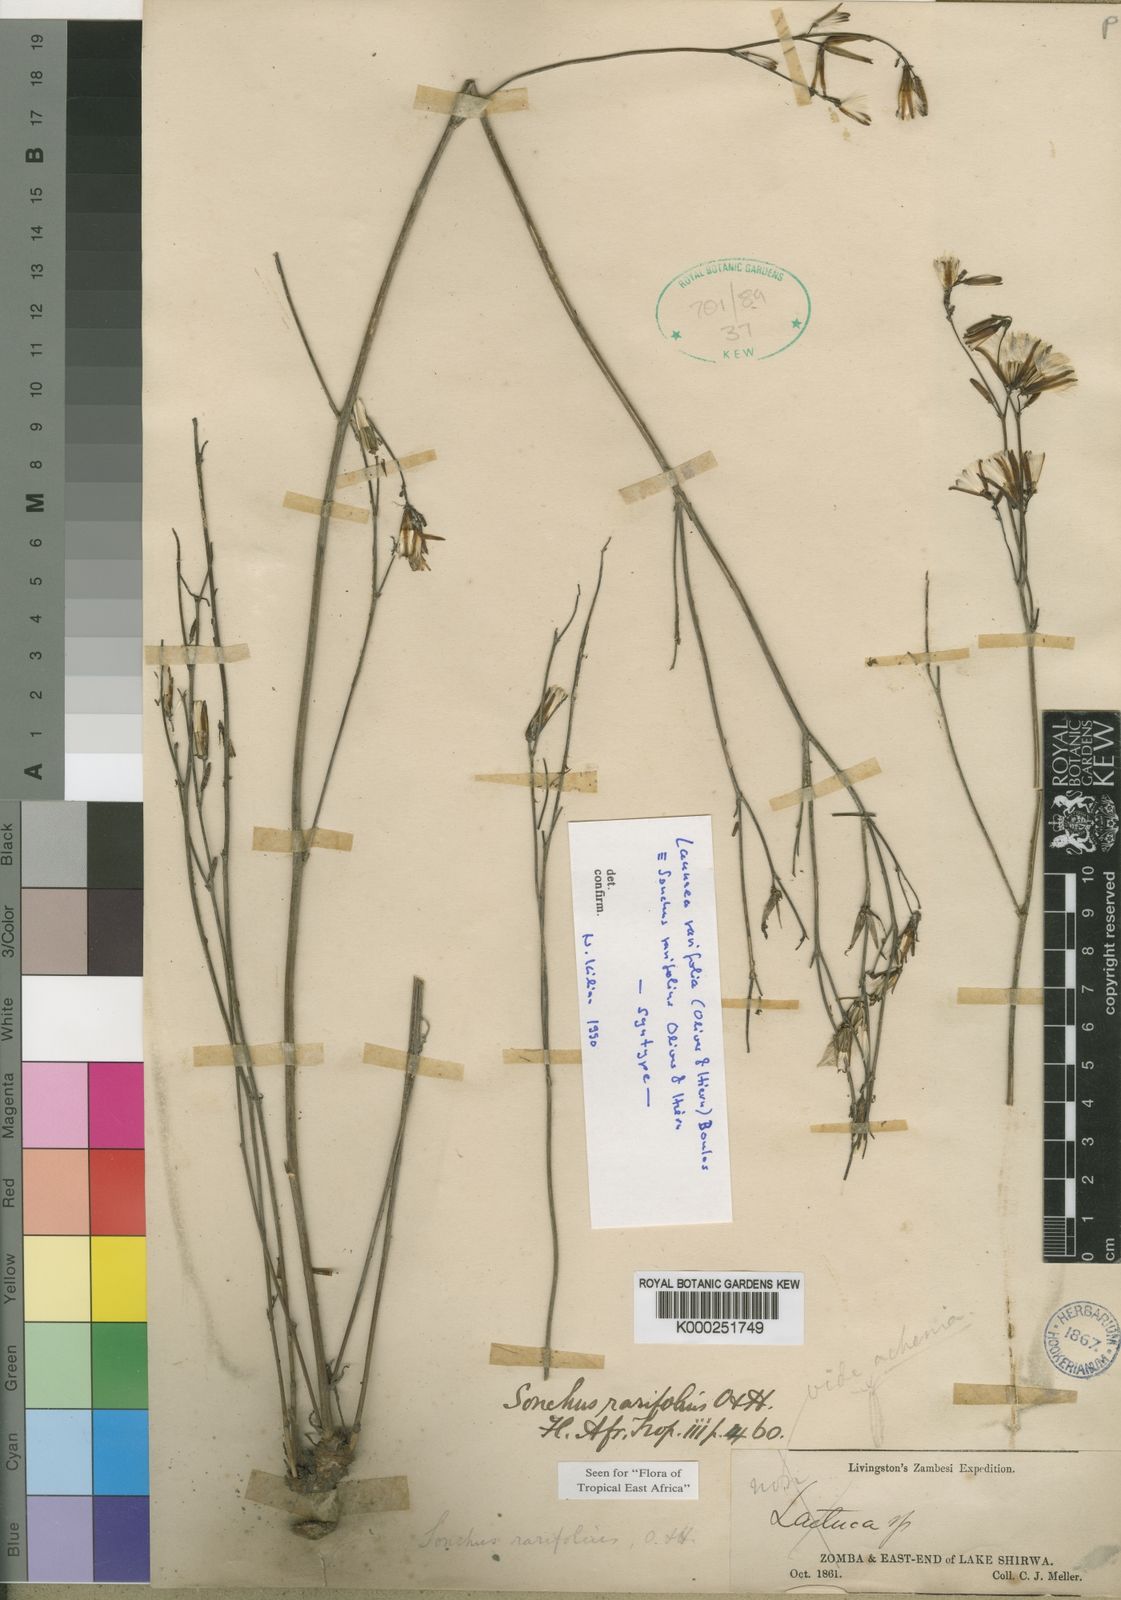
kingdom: Plantae
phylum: Tracheophyta
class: Magnoliopsida
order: Asterales
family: Asteraceae
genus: Launaea
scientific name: Launaea rarifolia
